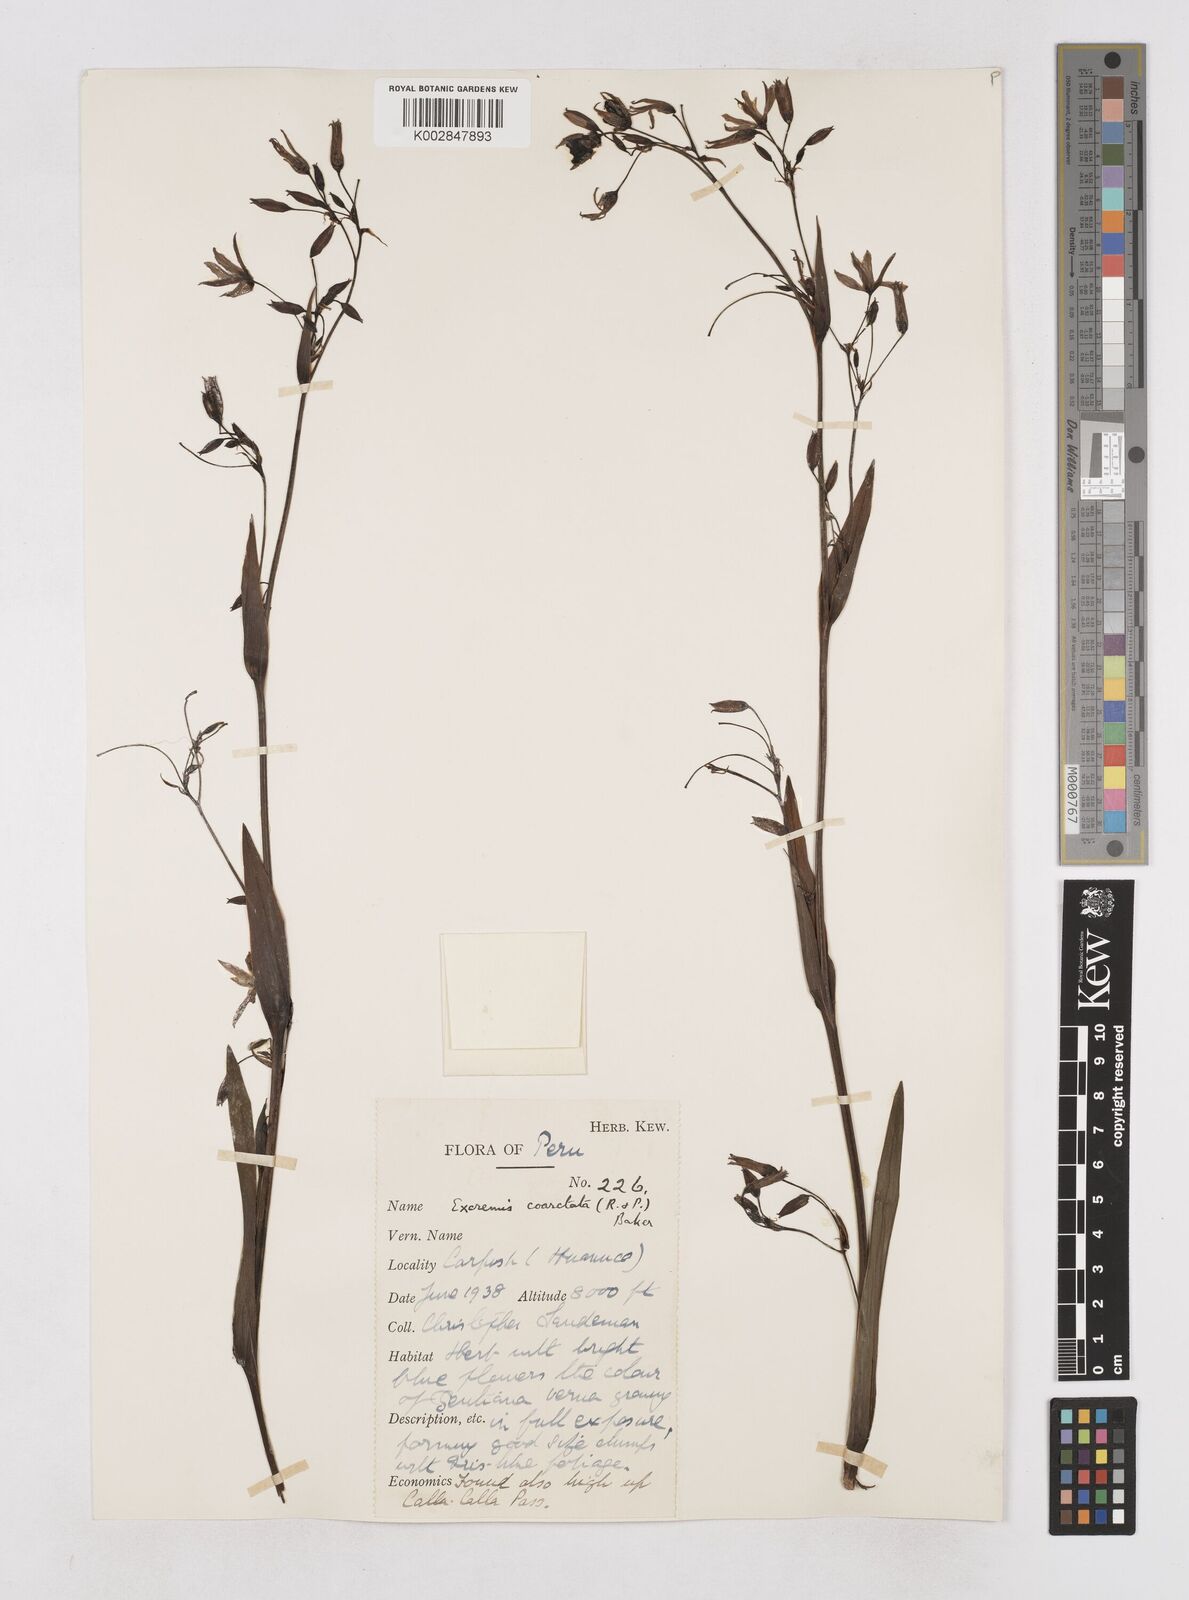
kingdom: Plantae
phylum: Tracheophyta
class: Liliopsida
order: Asparagales
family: Asphodelaceae
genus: Excremis
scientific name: Excremis coarctata
